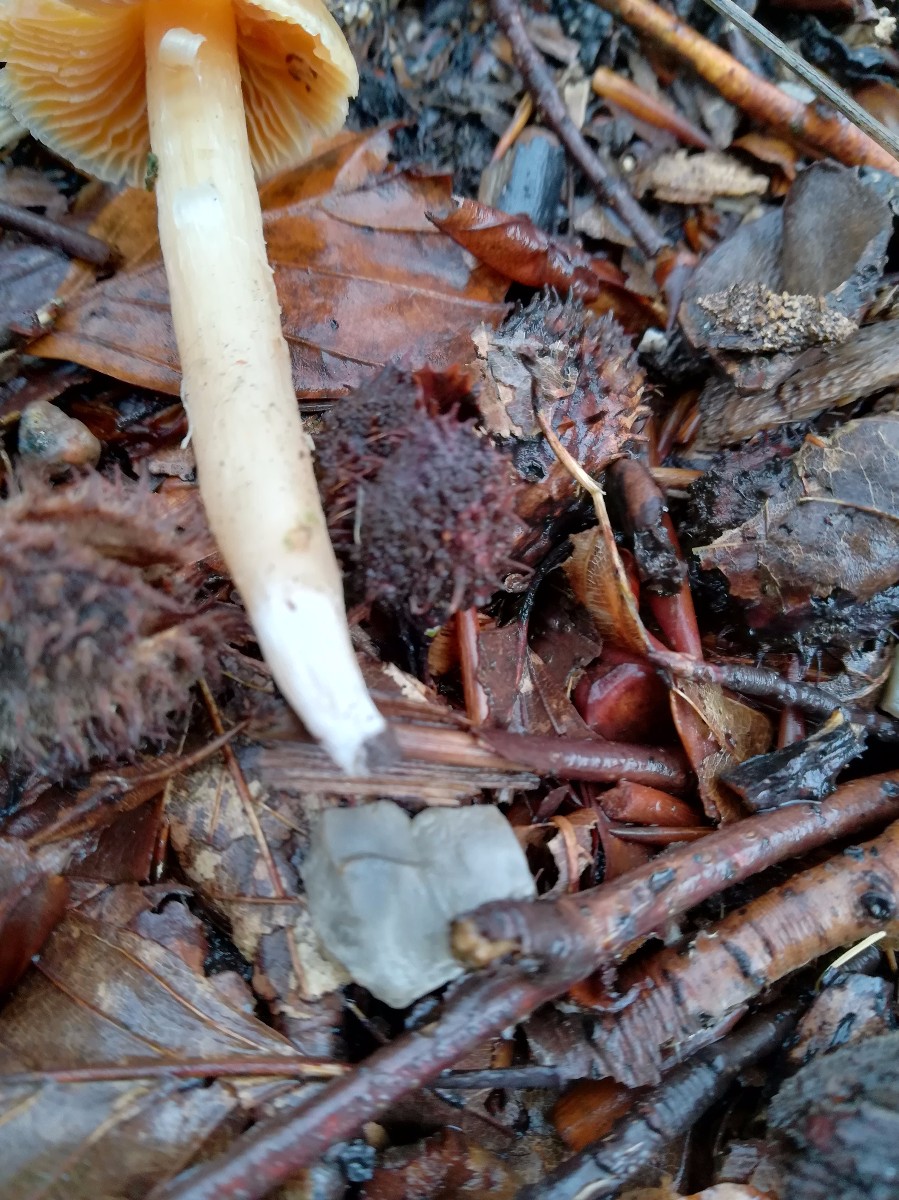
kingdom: Fungi
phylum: Basidiomycota
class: Agaricomycetes
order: Agaricales
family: Cortinariaceae
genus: Cortinarius
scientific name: Cortinarius
